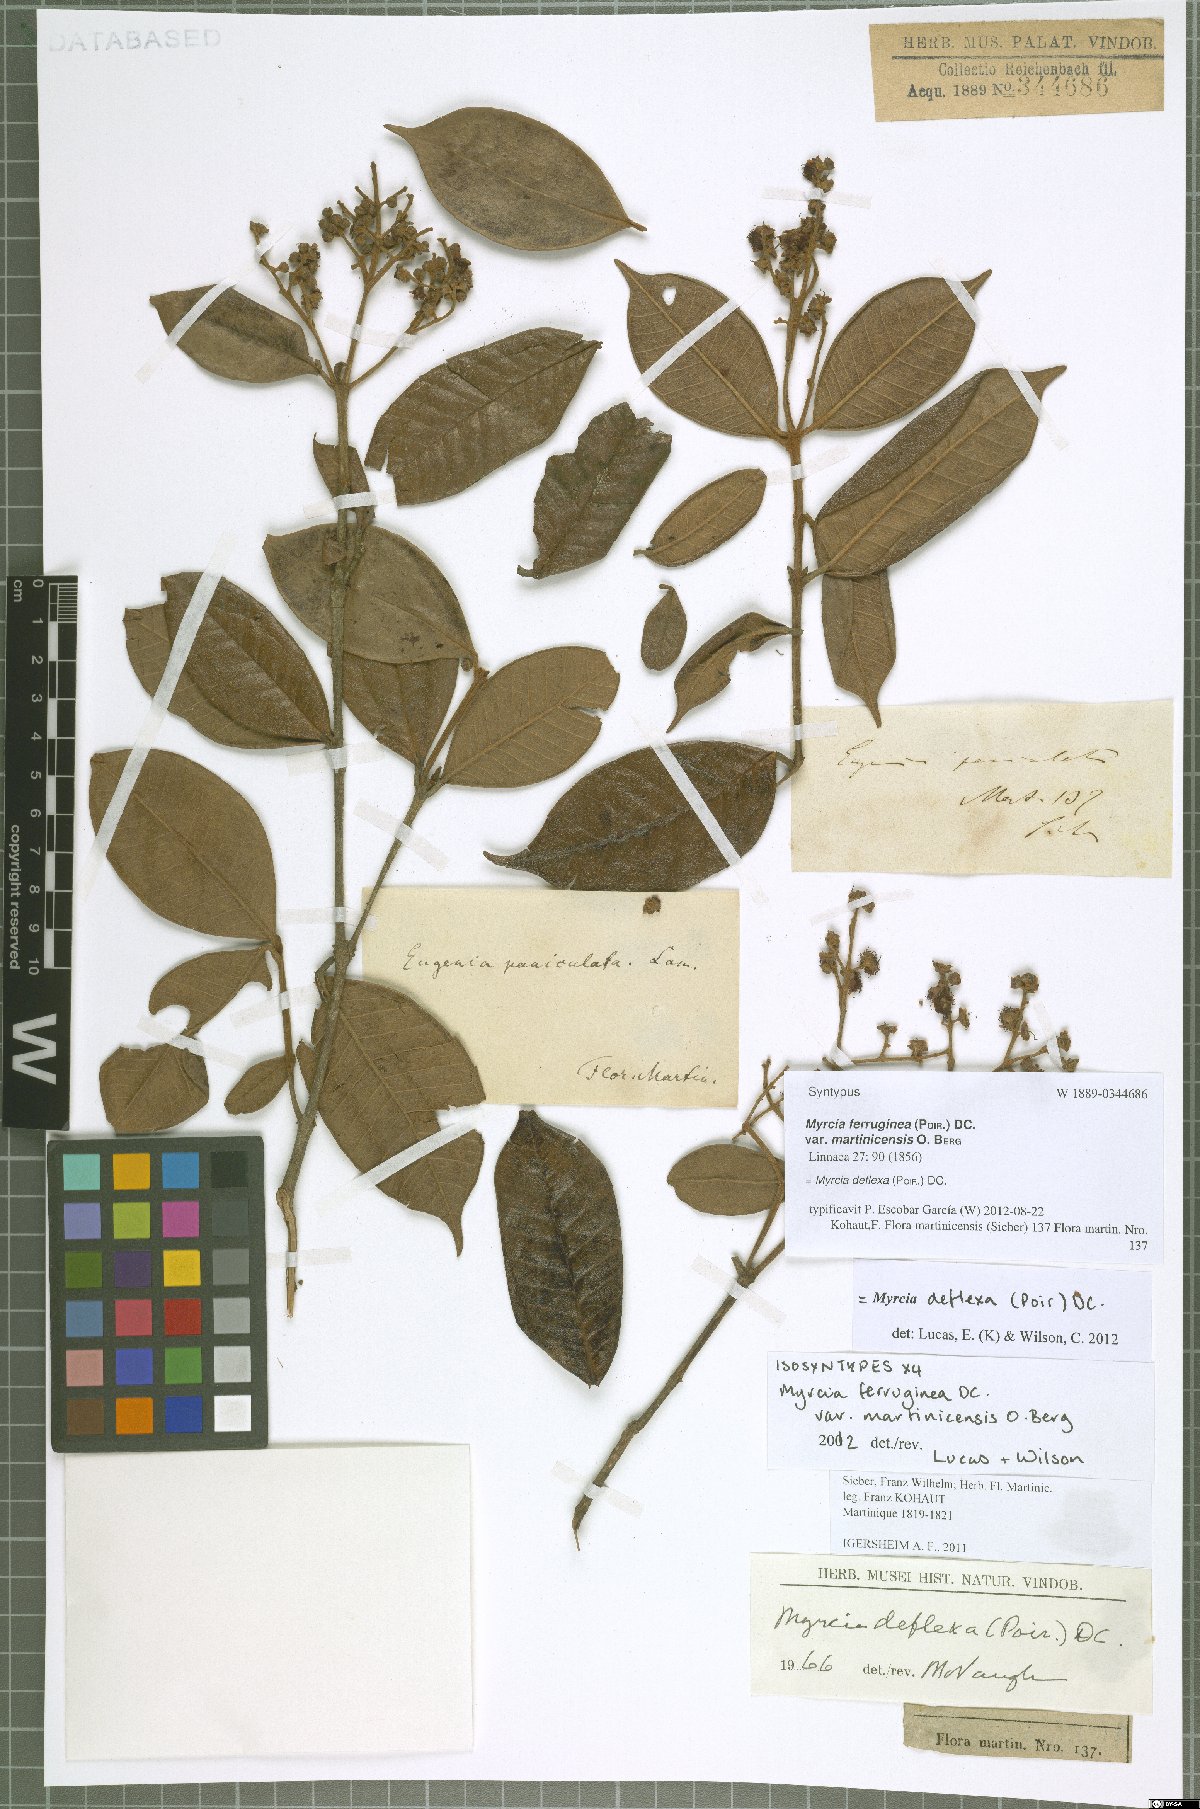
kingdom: Plantae
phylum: Tracheophyta
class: Magnoliopsida
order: Myrtales
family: Myrtaceae
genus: Myrcia
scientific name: Myrcia deflexa
